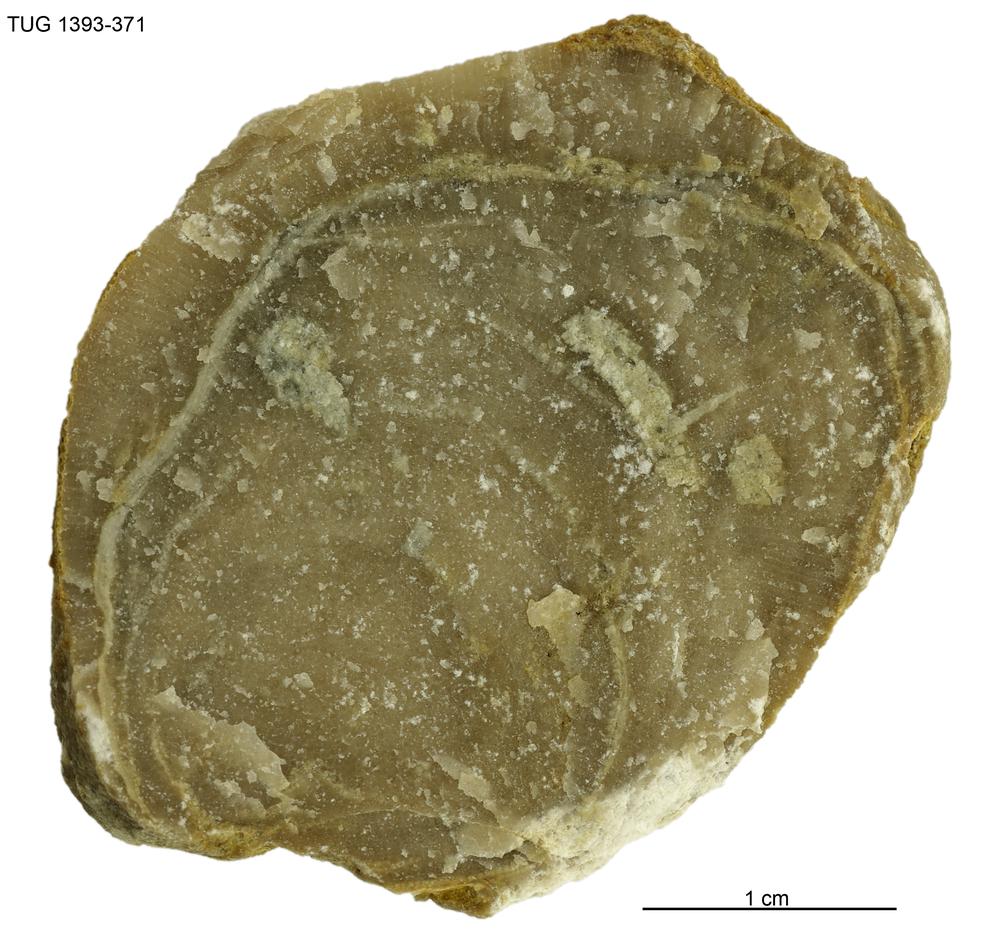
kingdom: Animalia
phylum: Bryozoa
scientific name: Bryozoa
